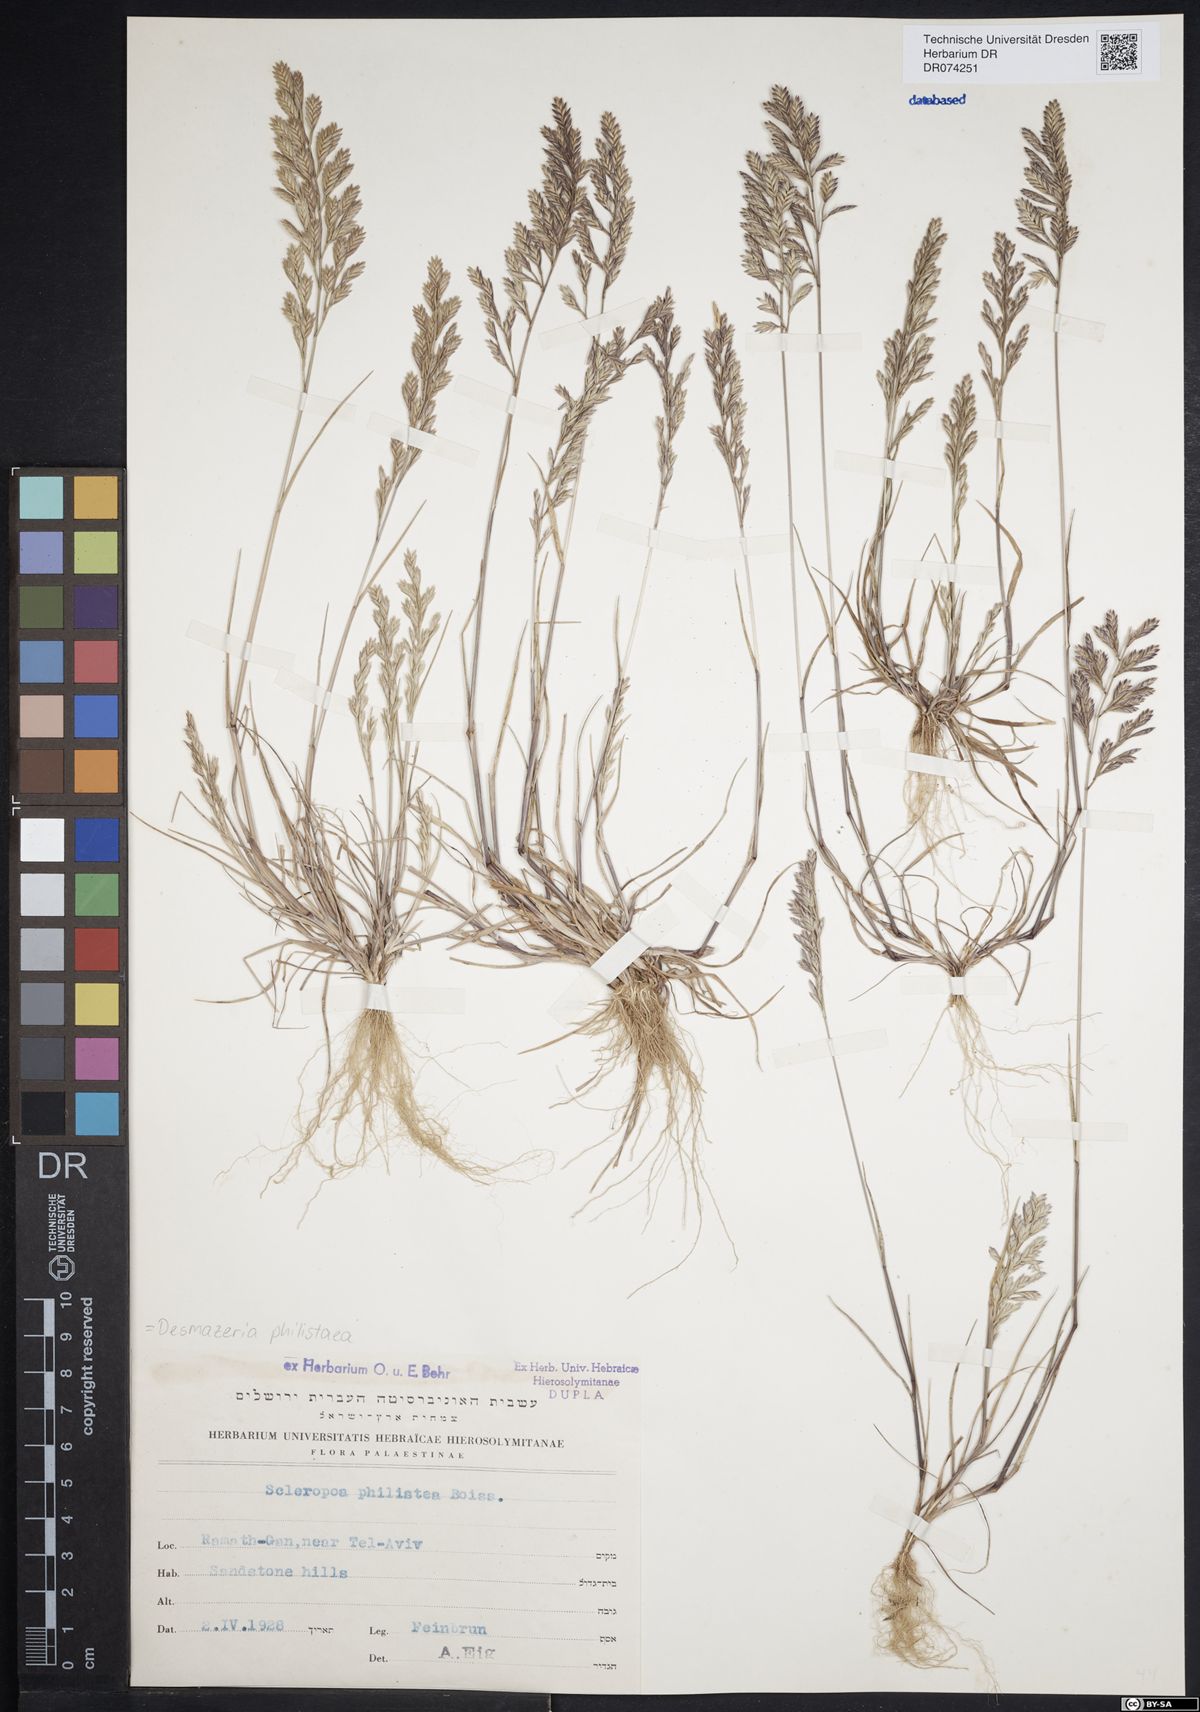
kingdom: Plantae
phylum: Tracheophyta
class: Liliopsida
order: Poales
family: Poaceae
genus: Desmazeria
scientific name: Desmazeria philistaea
